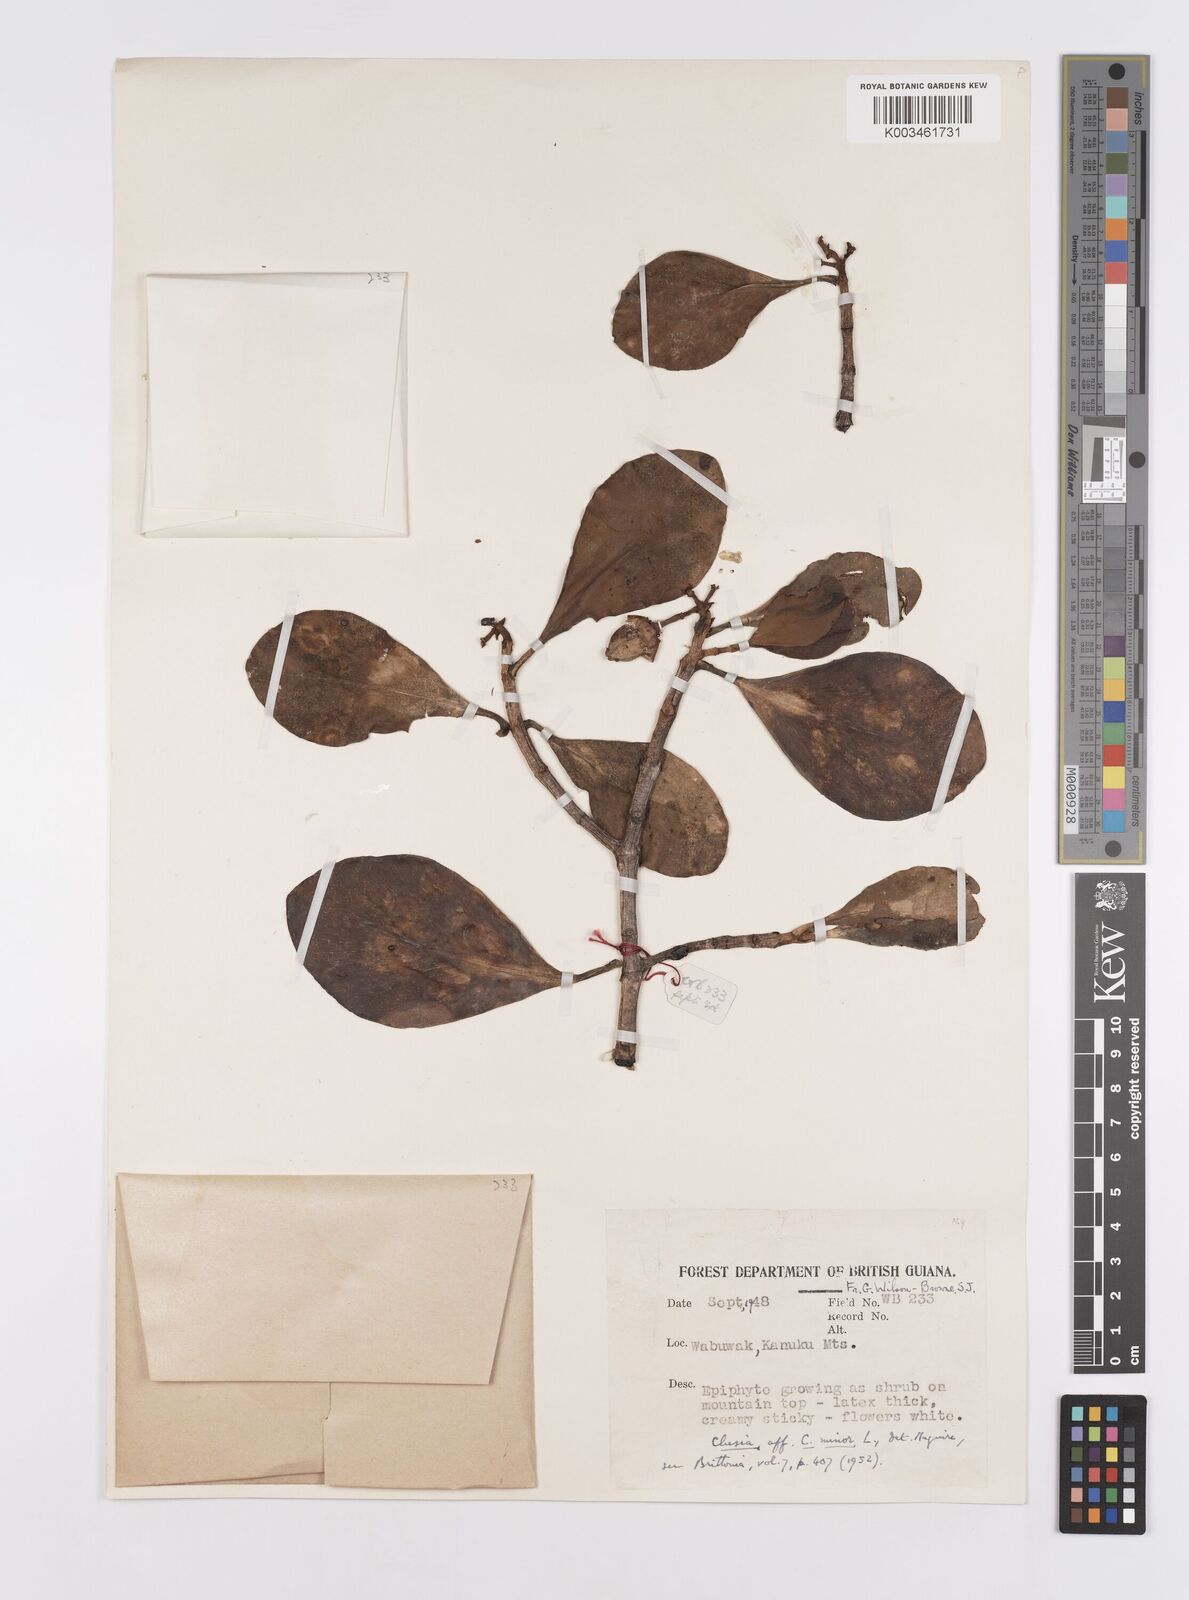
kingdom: Plantae
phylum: Tracheophyta
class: Magnoliopsida
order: Malpighiales
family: Clusiaceae
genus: Clusia
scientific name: Clusia minor
